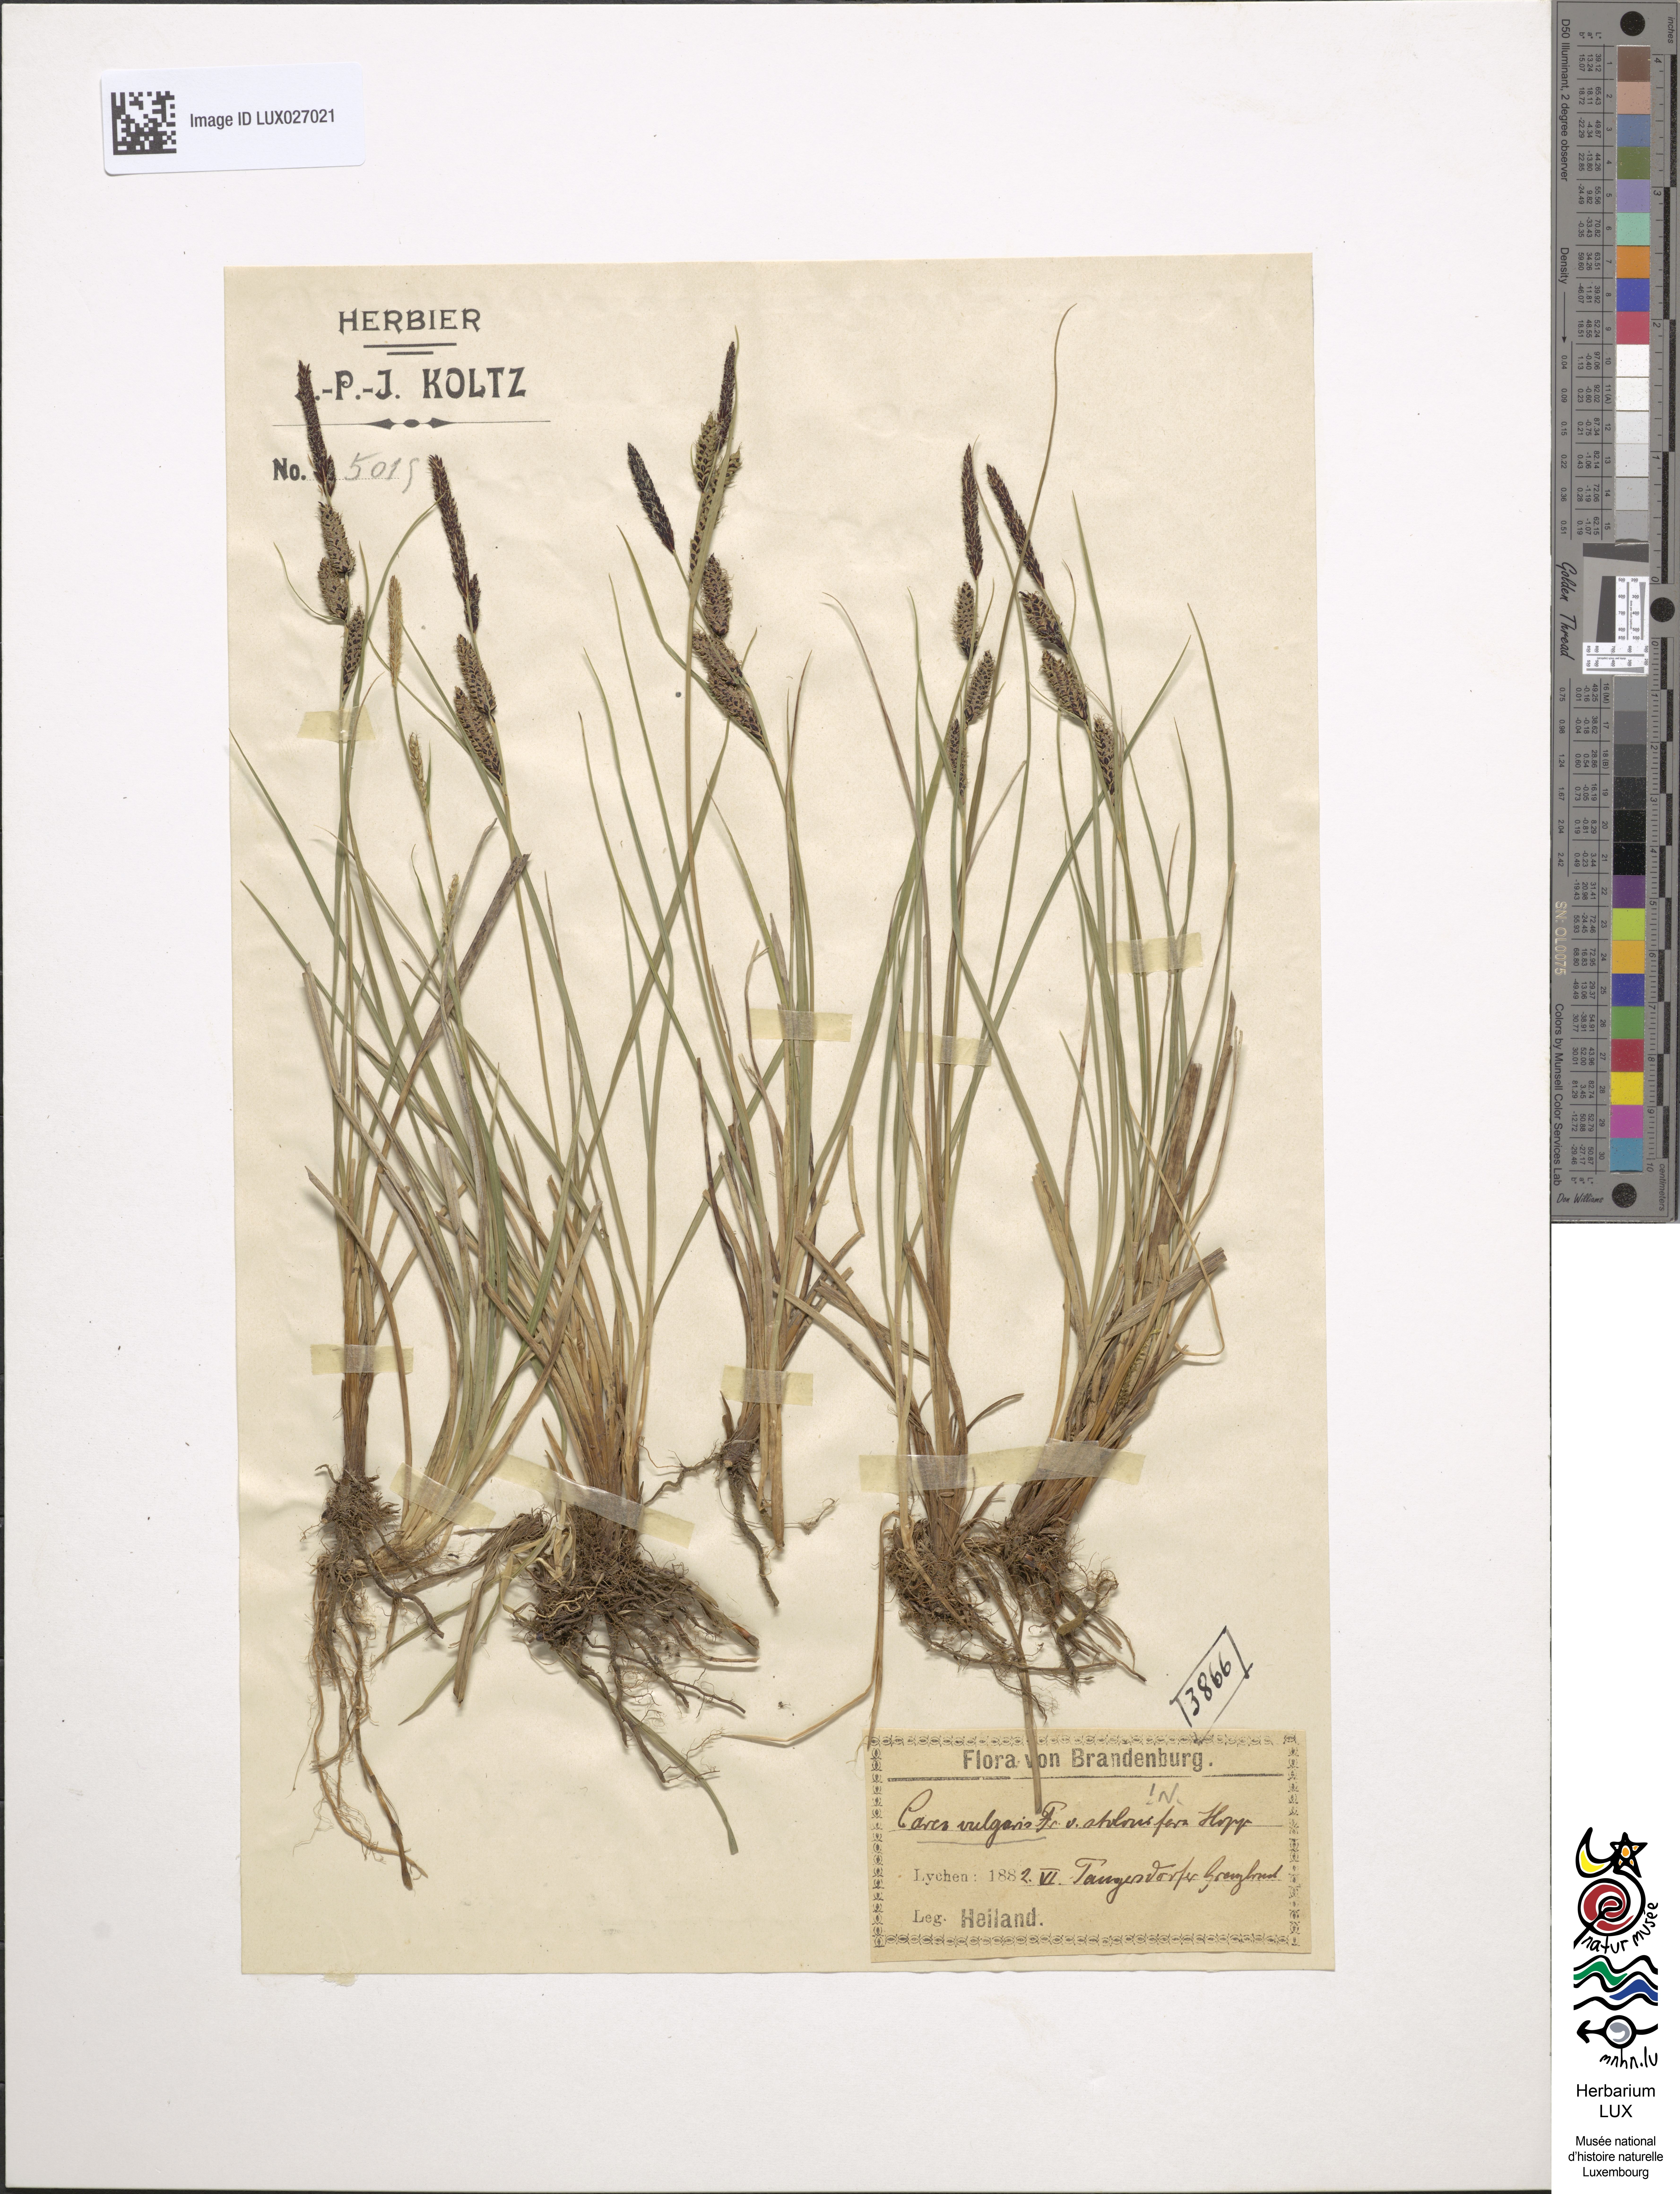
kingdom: Plantae
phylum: Tracheophyta
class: Liliopsida
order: Poales
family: Cyperaceae
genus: Carex
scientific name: Carex nigra
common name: Common sedge
